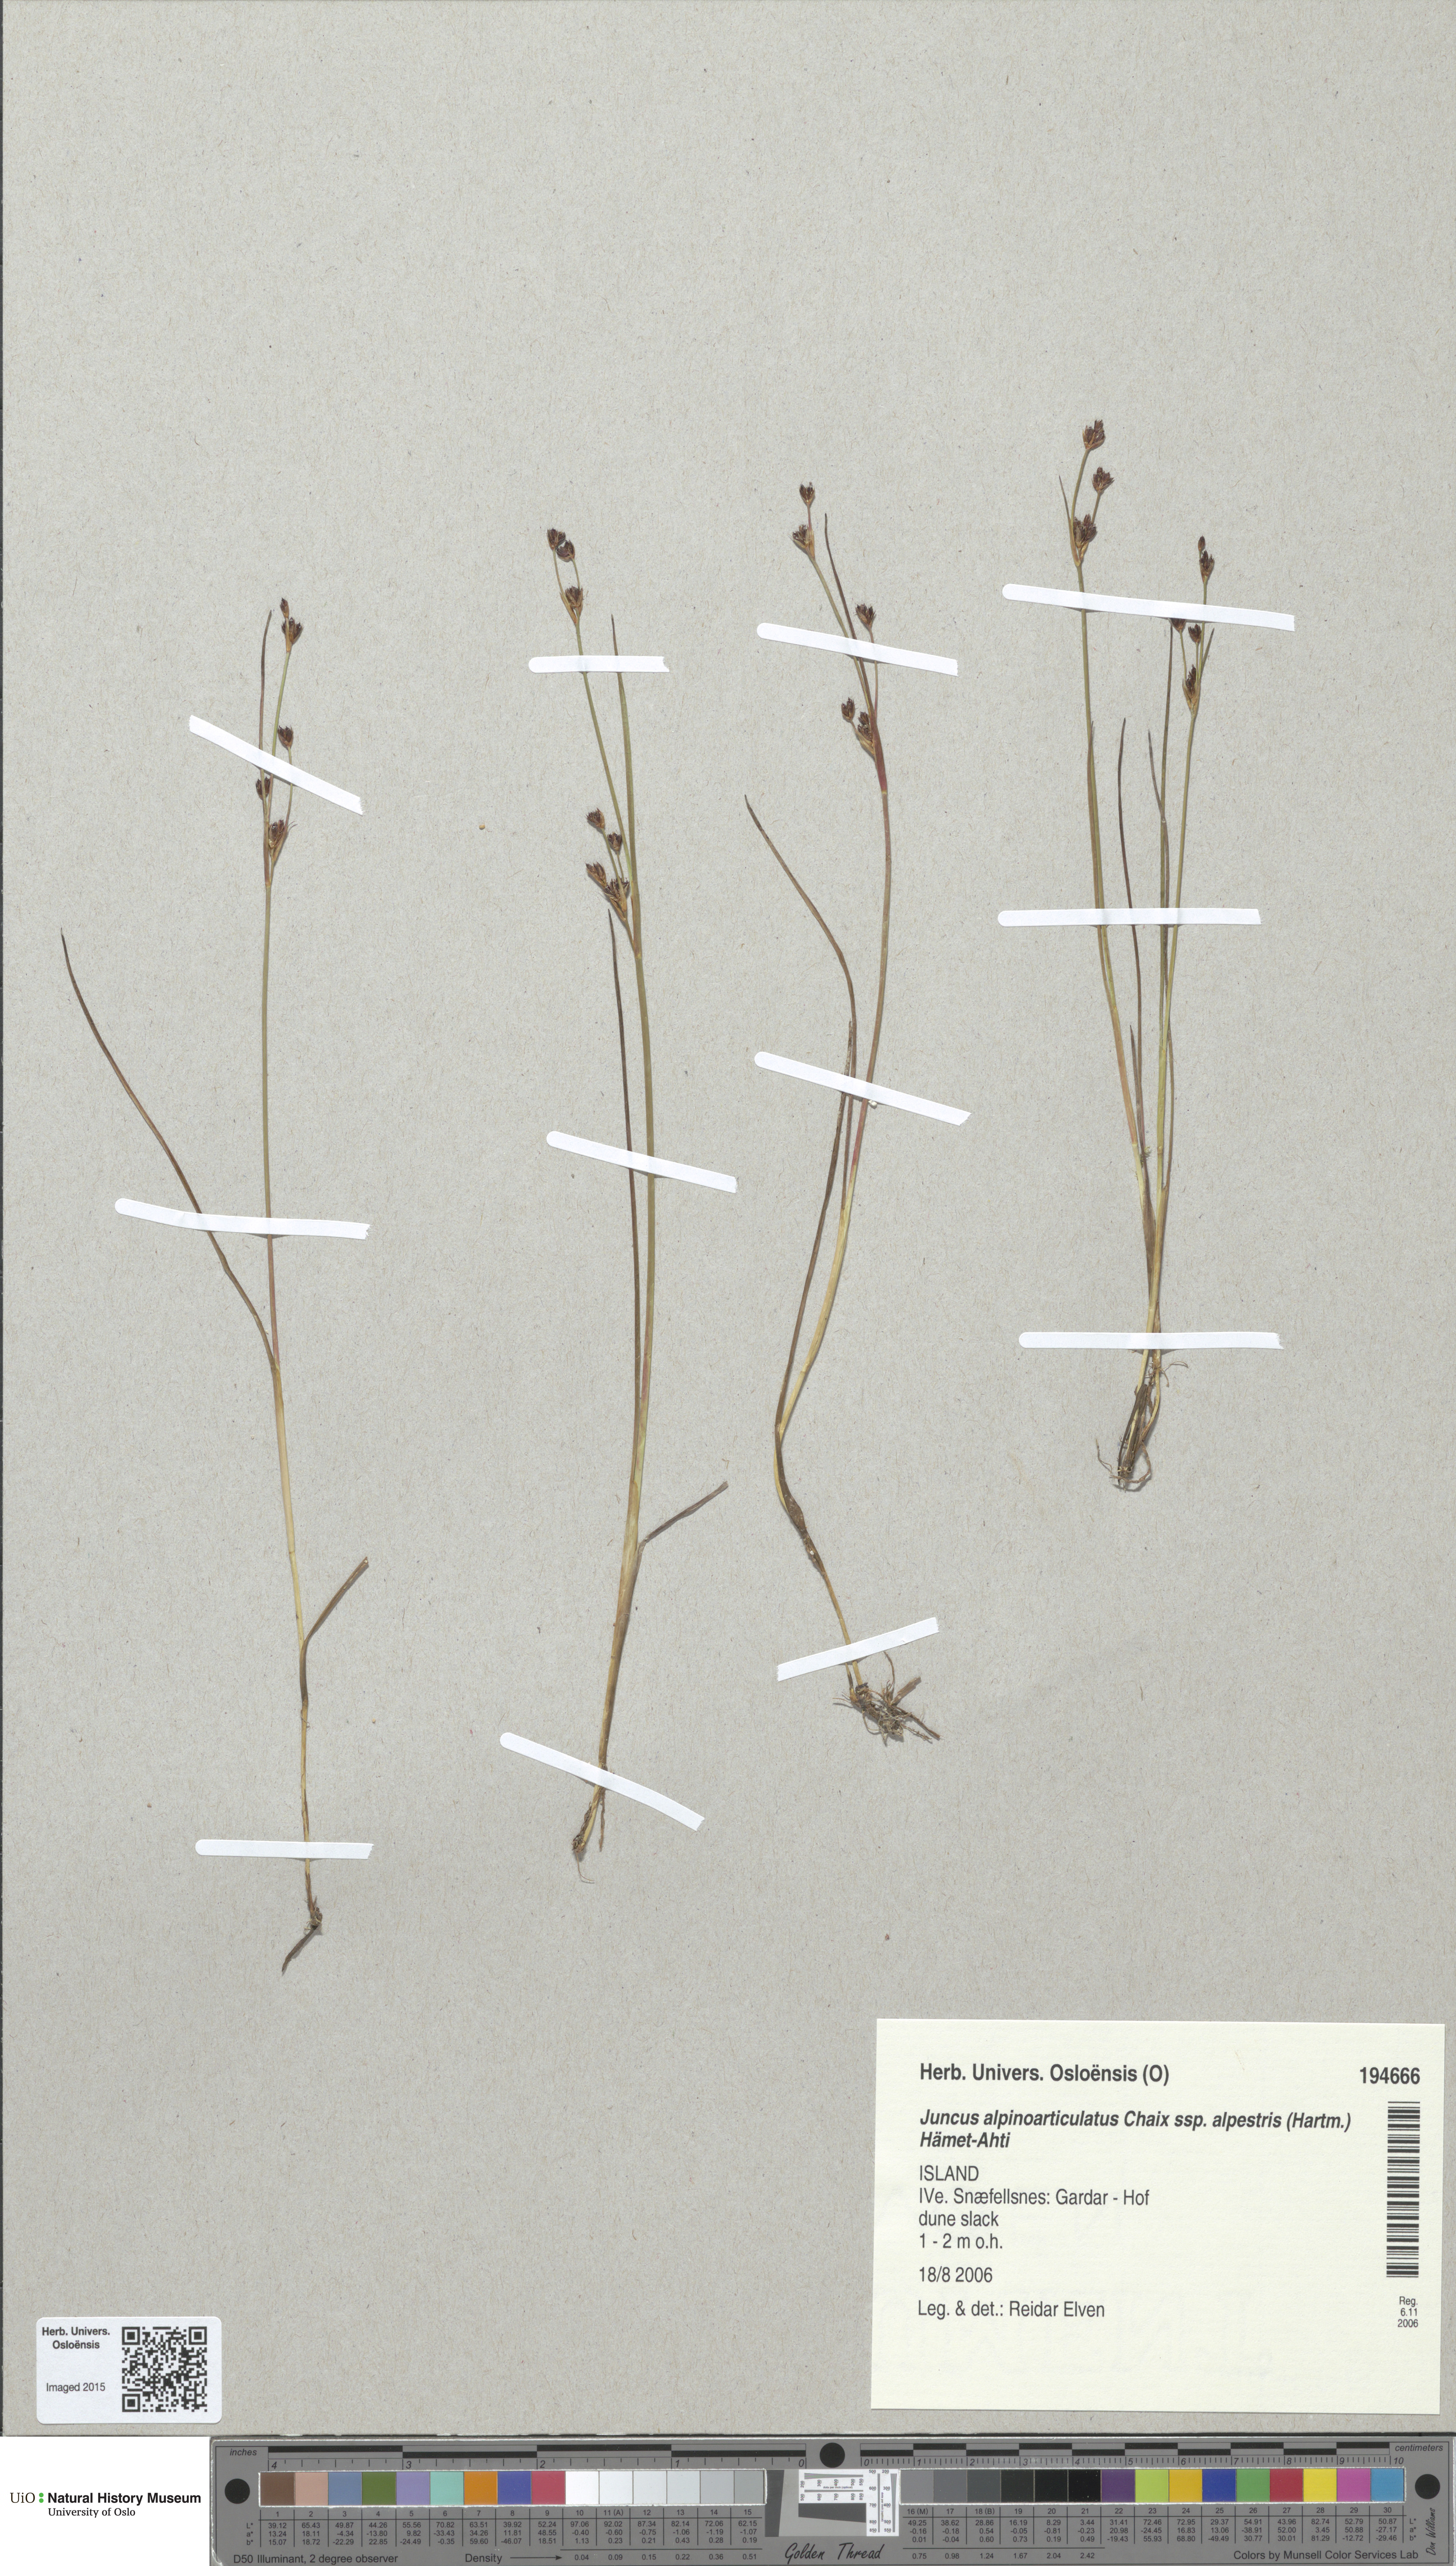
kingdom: Plantae
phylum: Tracheophyta
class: Liliopsida
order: Poales
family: Juncaceae
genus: Juncus
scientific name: Juncus alpinoarticulatus
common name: Alpine rush
